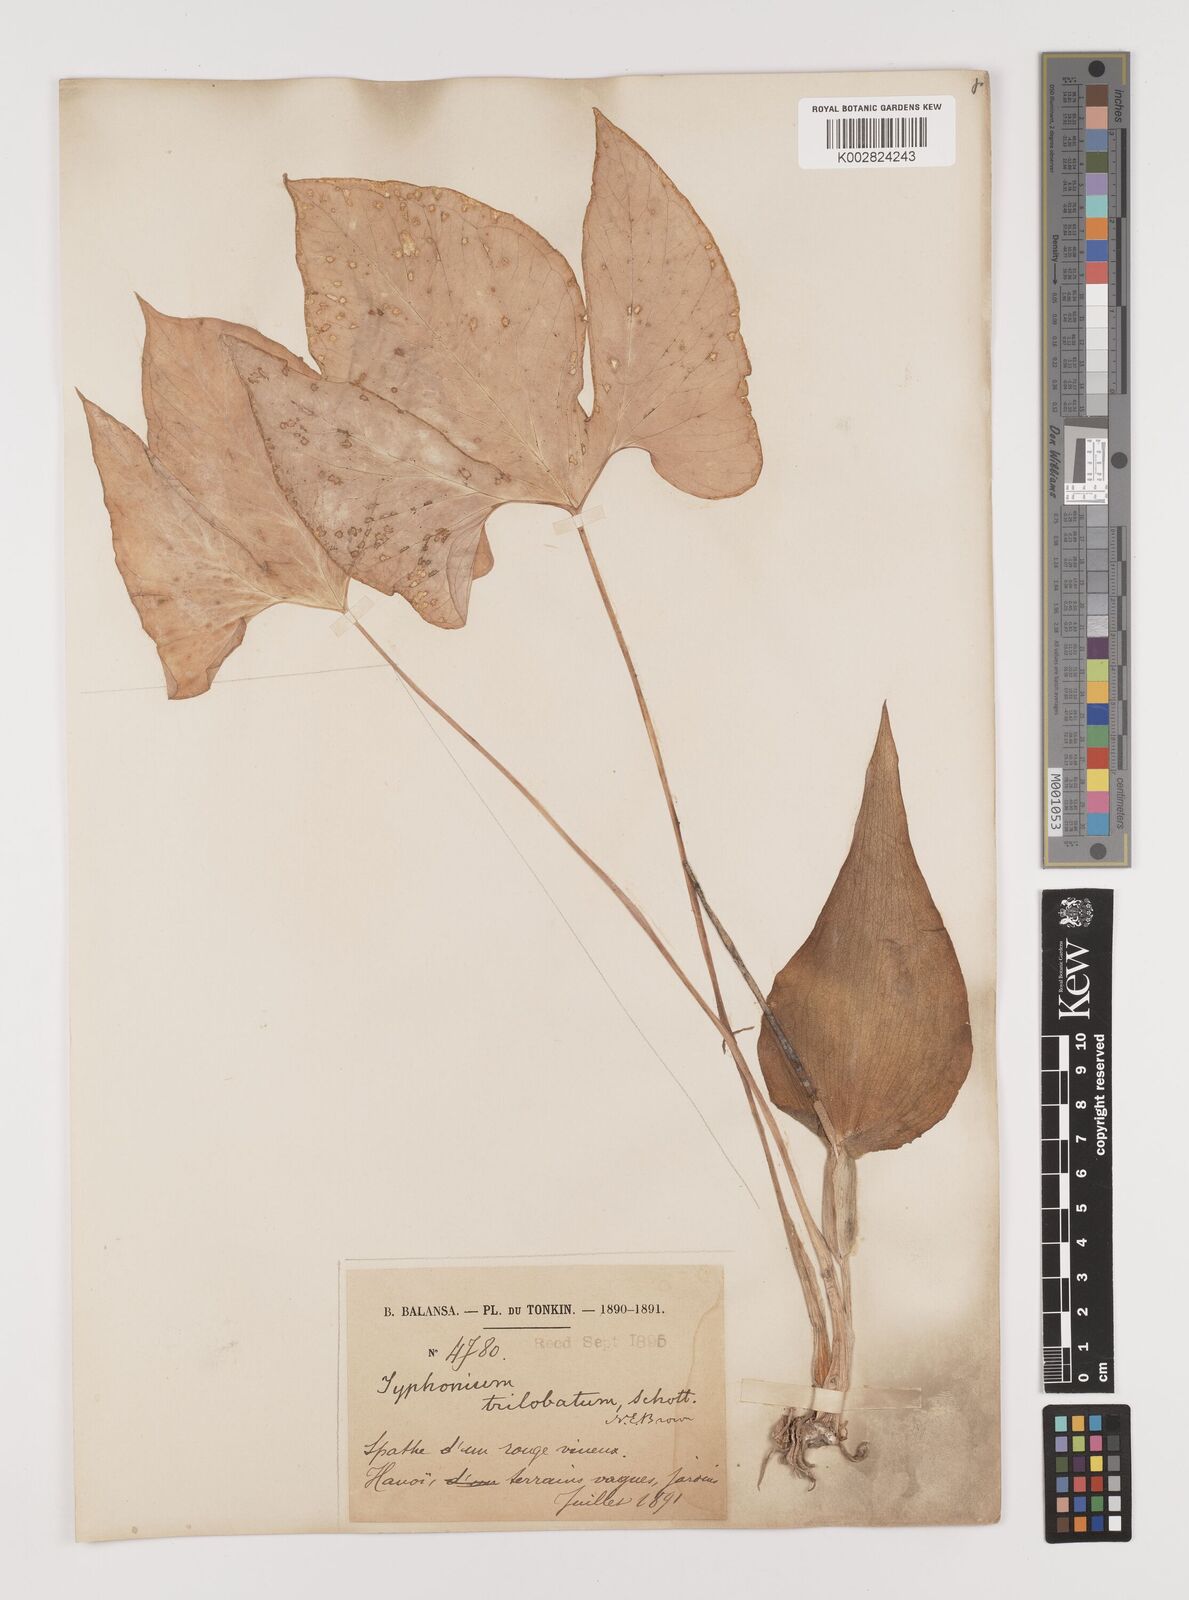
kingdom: Plantae
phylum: Tracheophyta
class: Liliopsida
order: Alismatales
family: Araceae
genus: Typhonium
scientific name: Typhonium trilobatum
